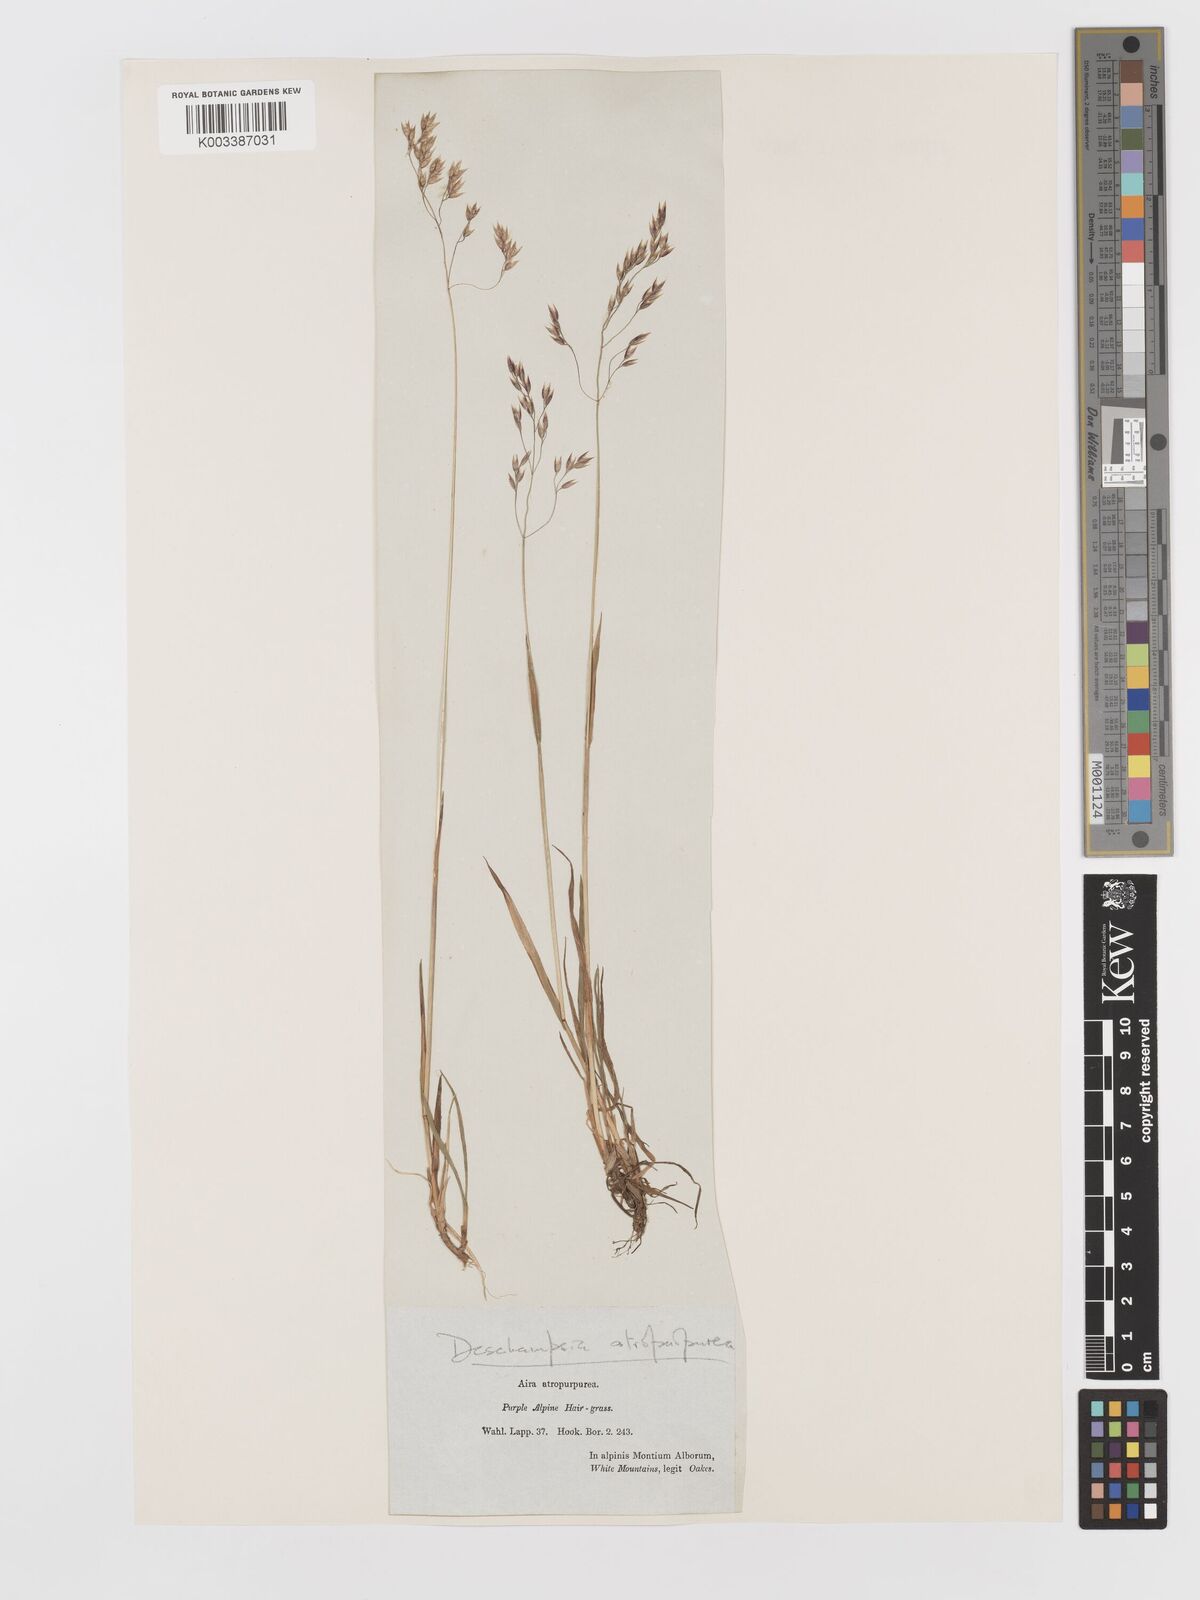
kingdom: Plantae
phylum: Tracheophyta
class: Liliopsida
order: Poales
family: Poaceae
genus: Vahlodea
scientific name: Vahlodea atropurpurea
